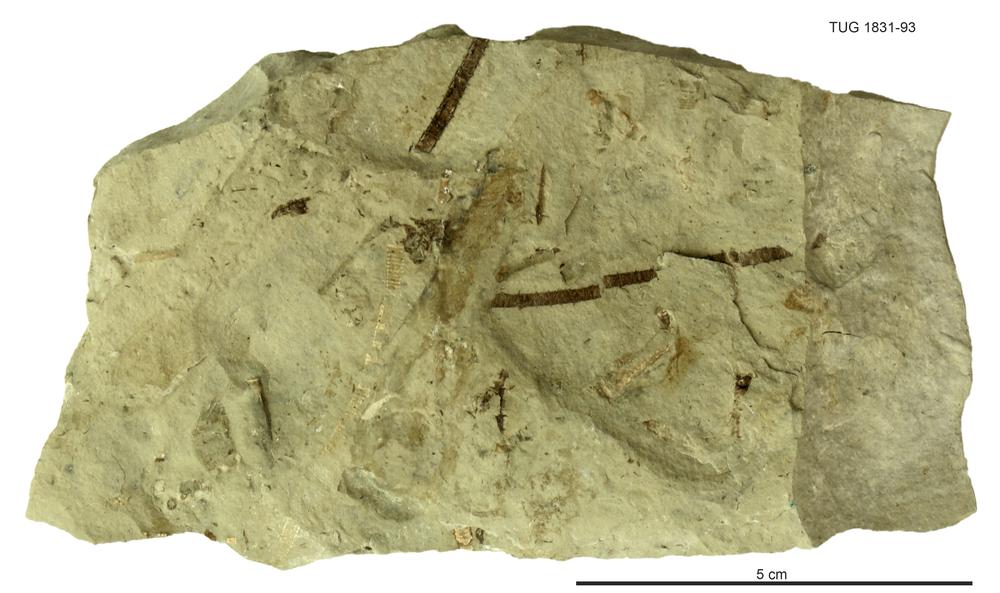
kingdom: Animalia
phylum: Echinodermata
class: Crinoidea
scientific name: Crinoidea
